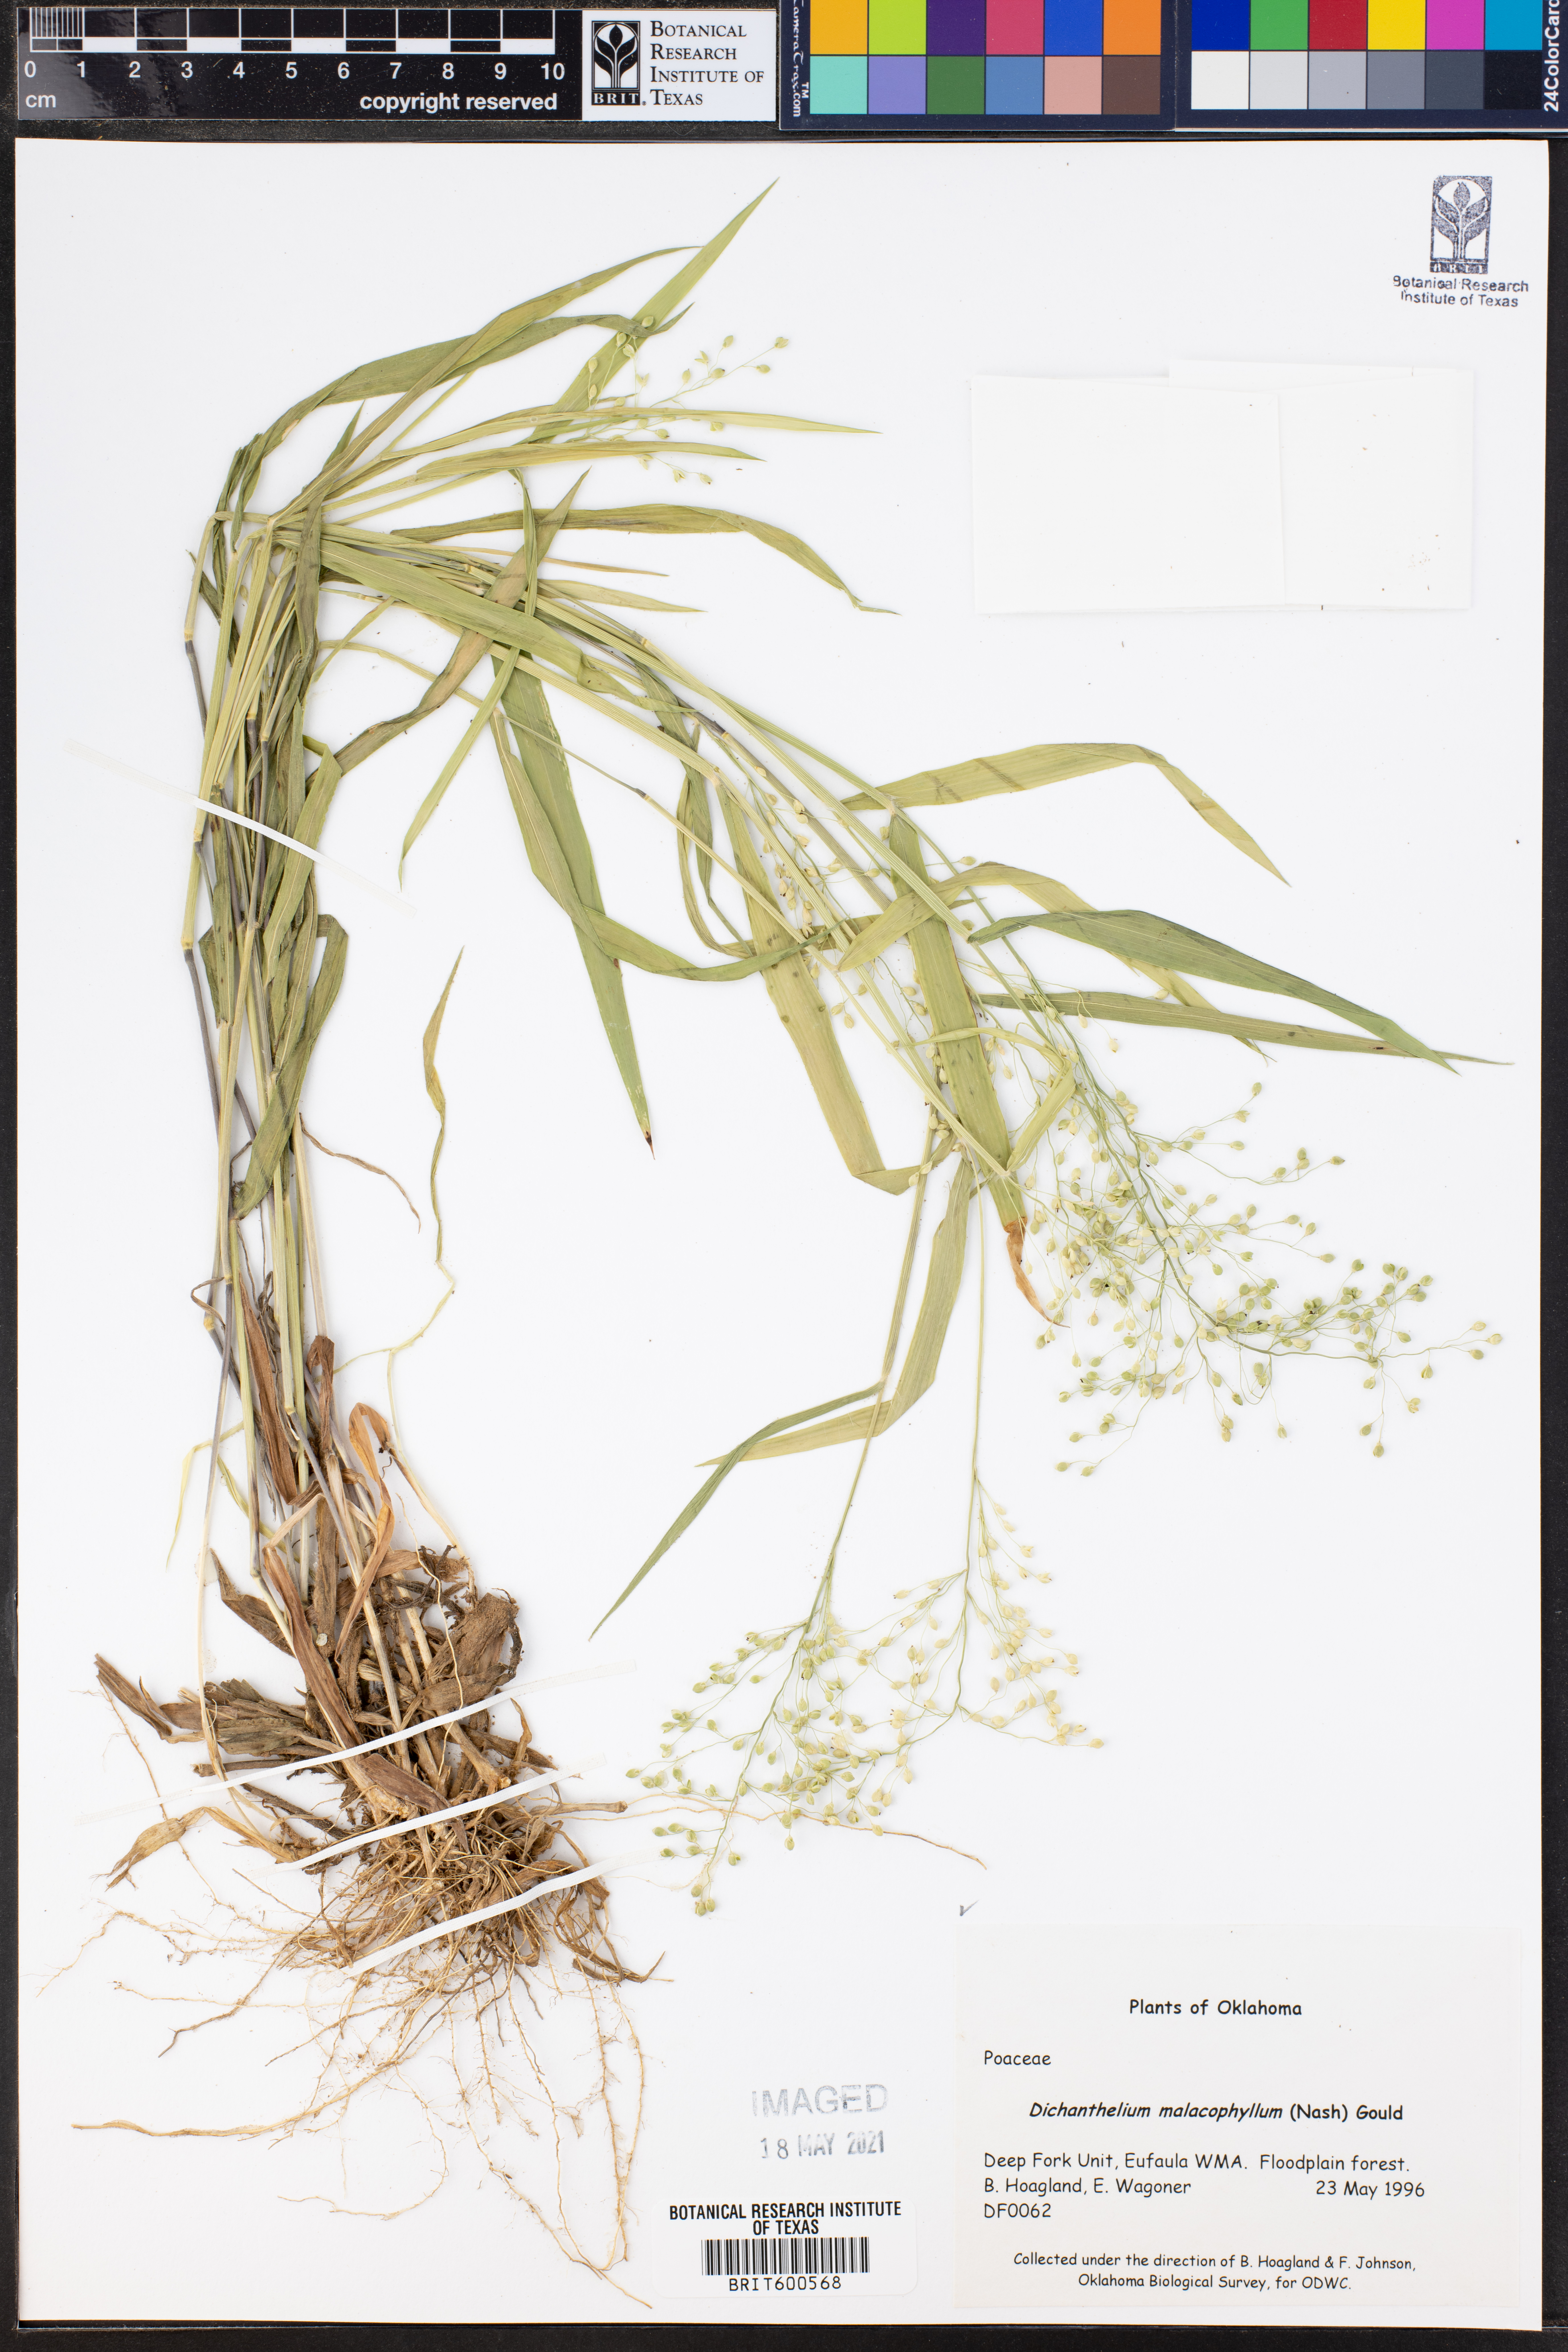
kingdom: Plantae
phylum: Tracheophyta
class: Liliopsida
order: Poales
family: Poaceae
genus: Dichanthelium
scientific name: Dichanthelium malacophyllum
